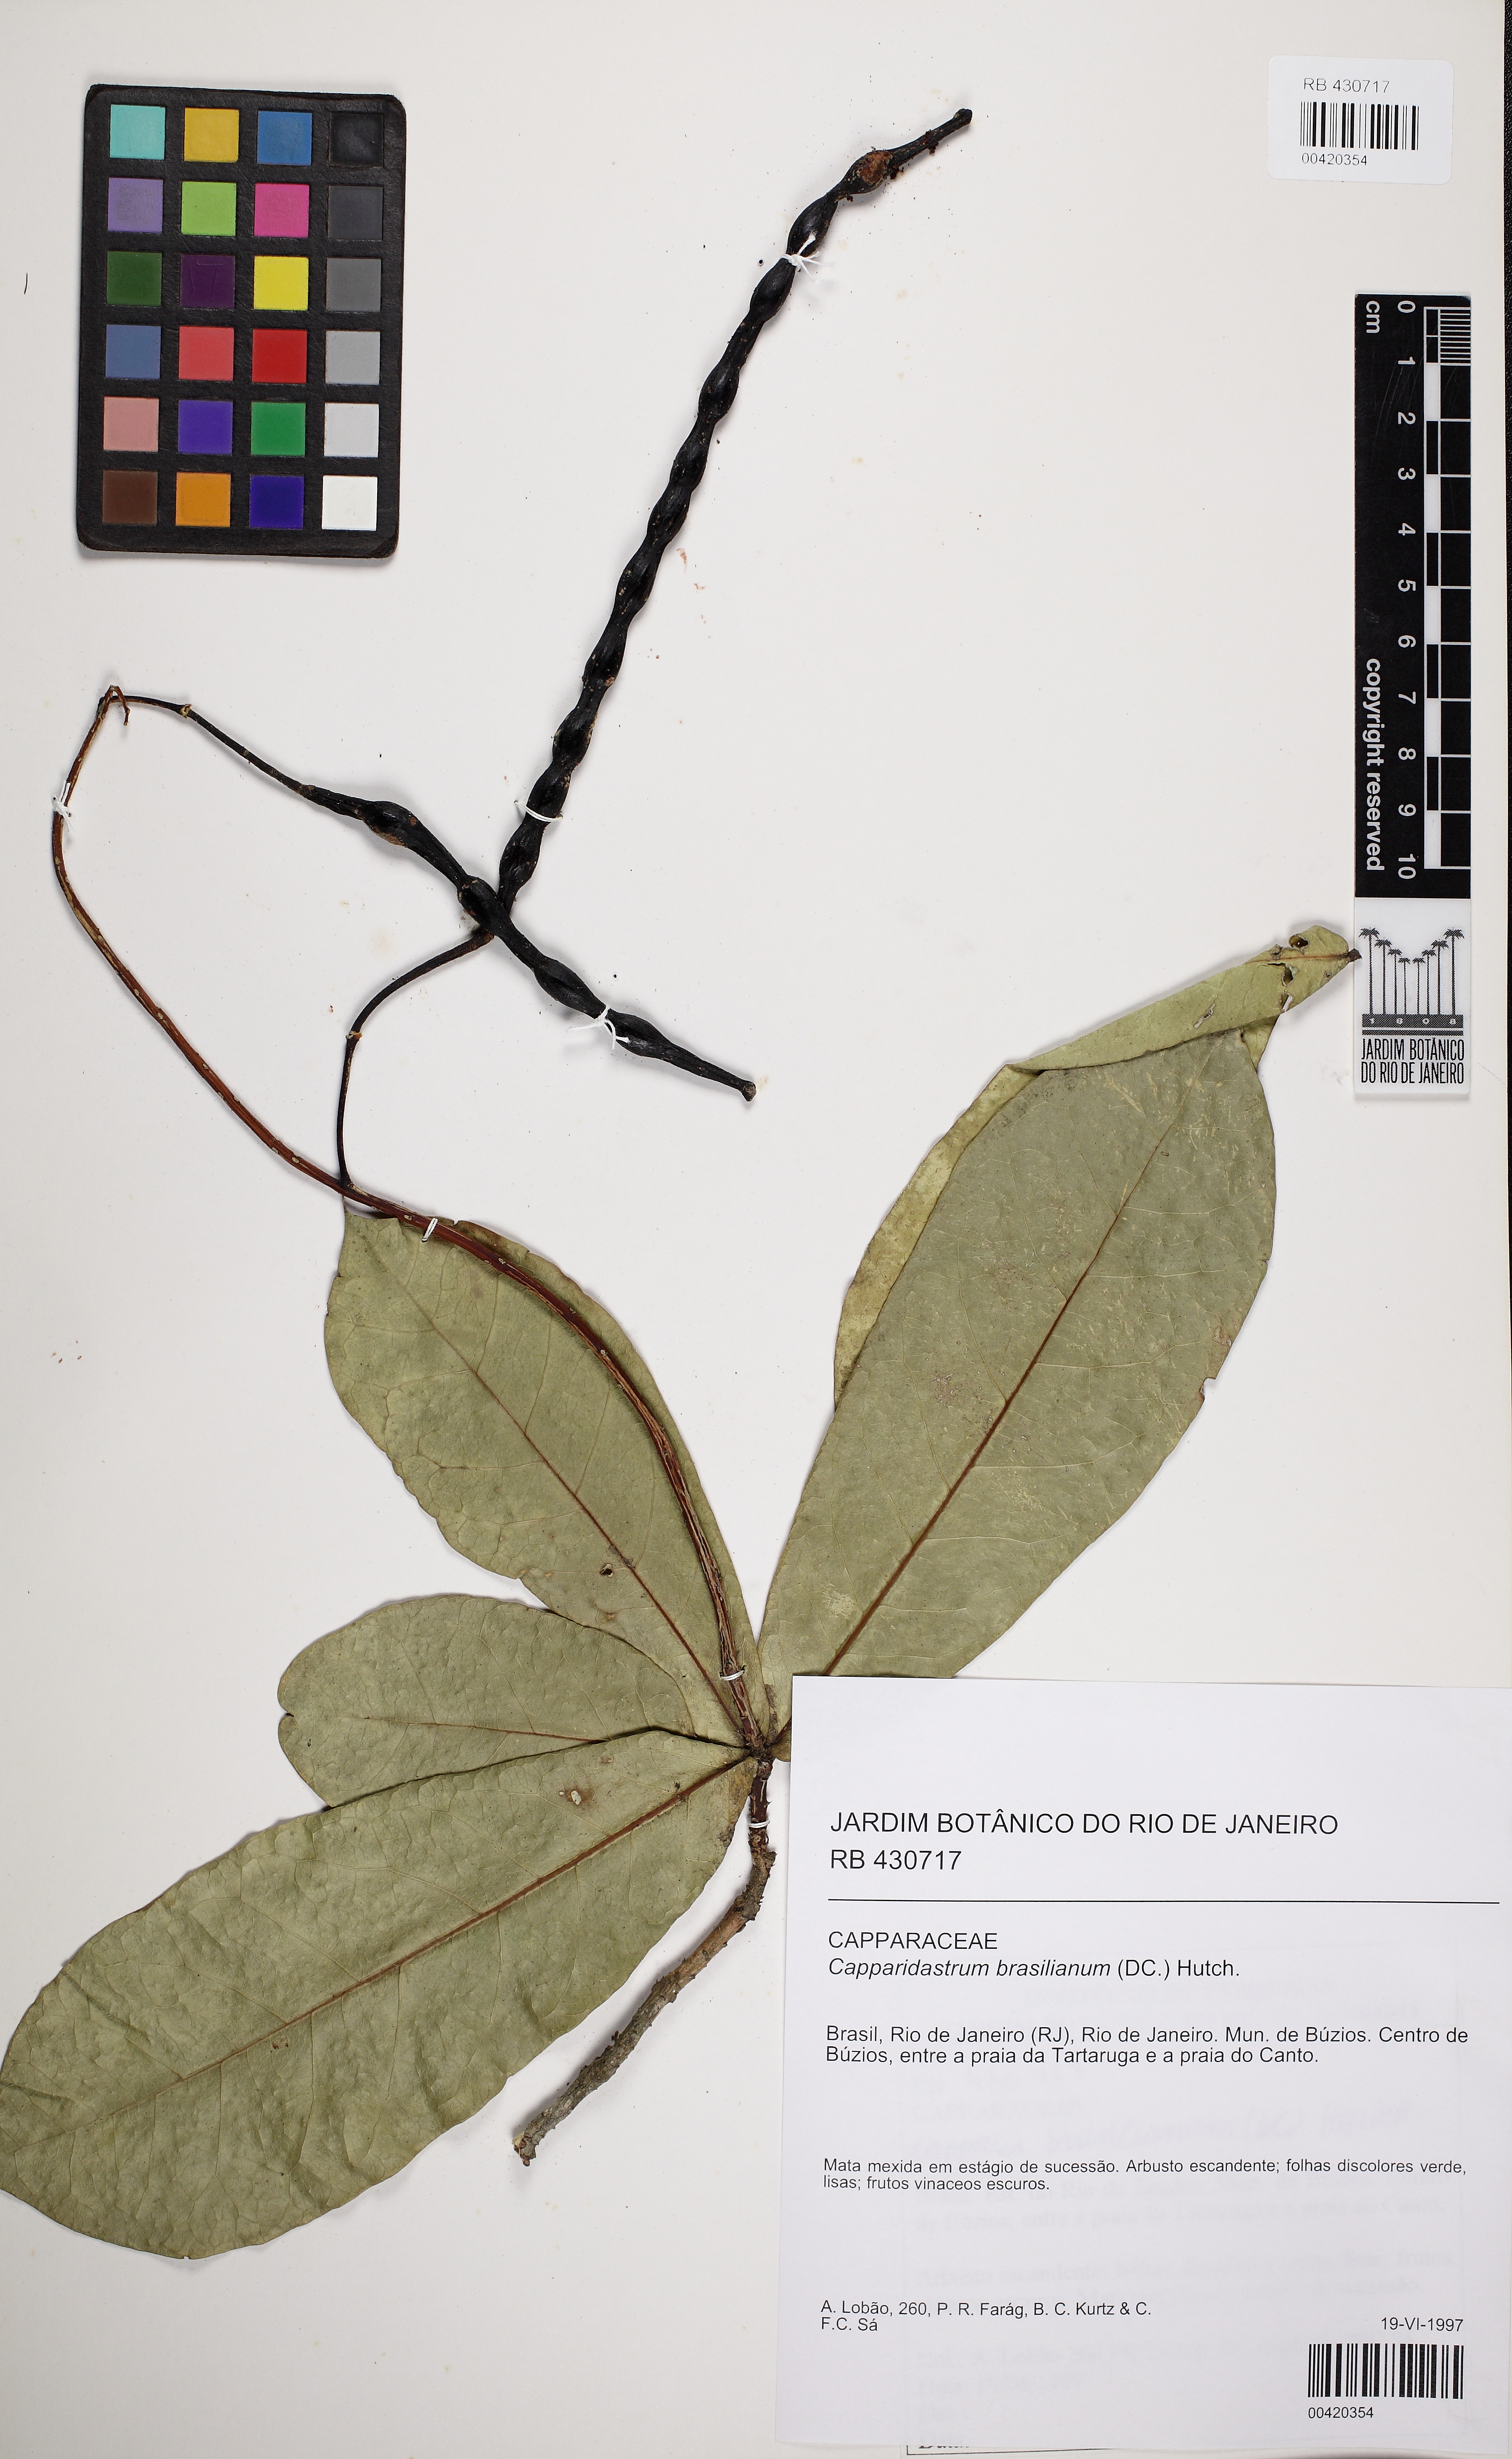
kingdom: Plantae
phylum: Tracheophyta
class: Magnoliopsida
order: Brassicales
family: Capparaceae
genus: Monilicarpa
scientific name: Monilicarpa brasiliana
